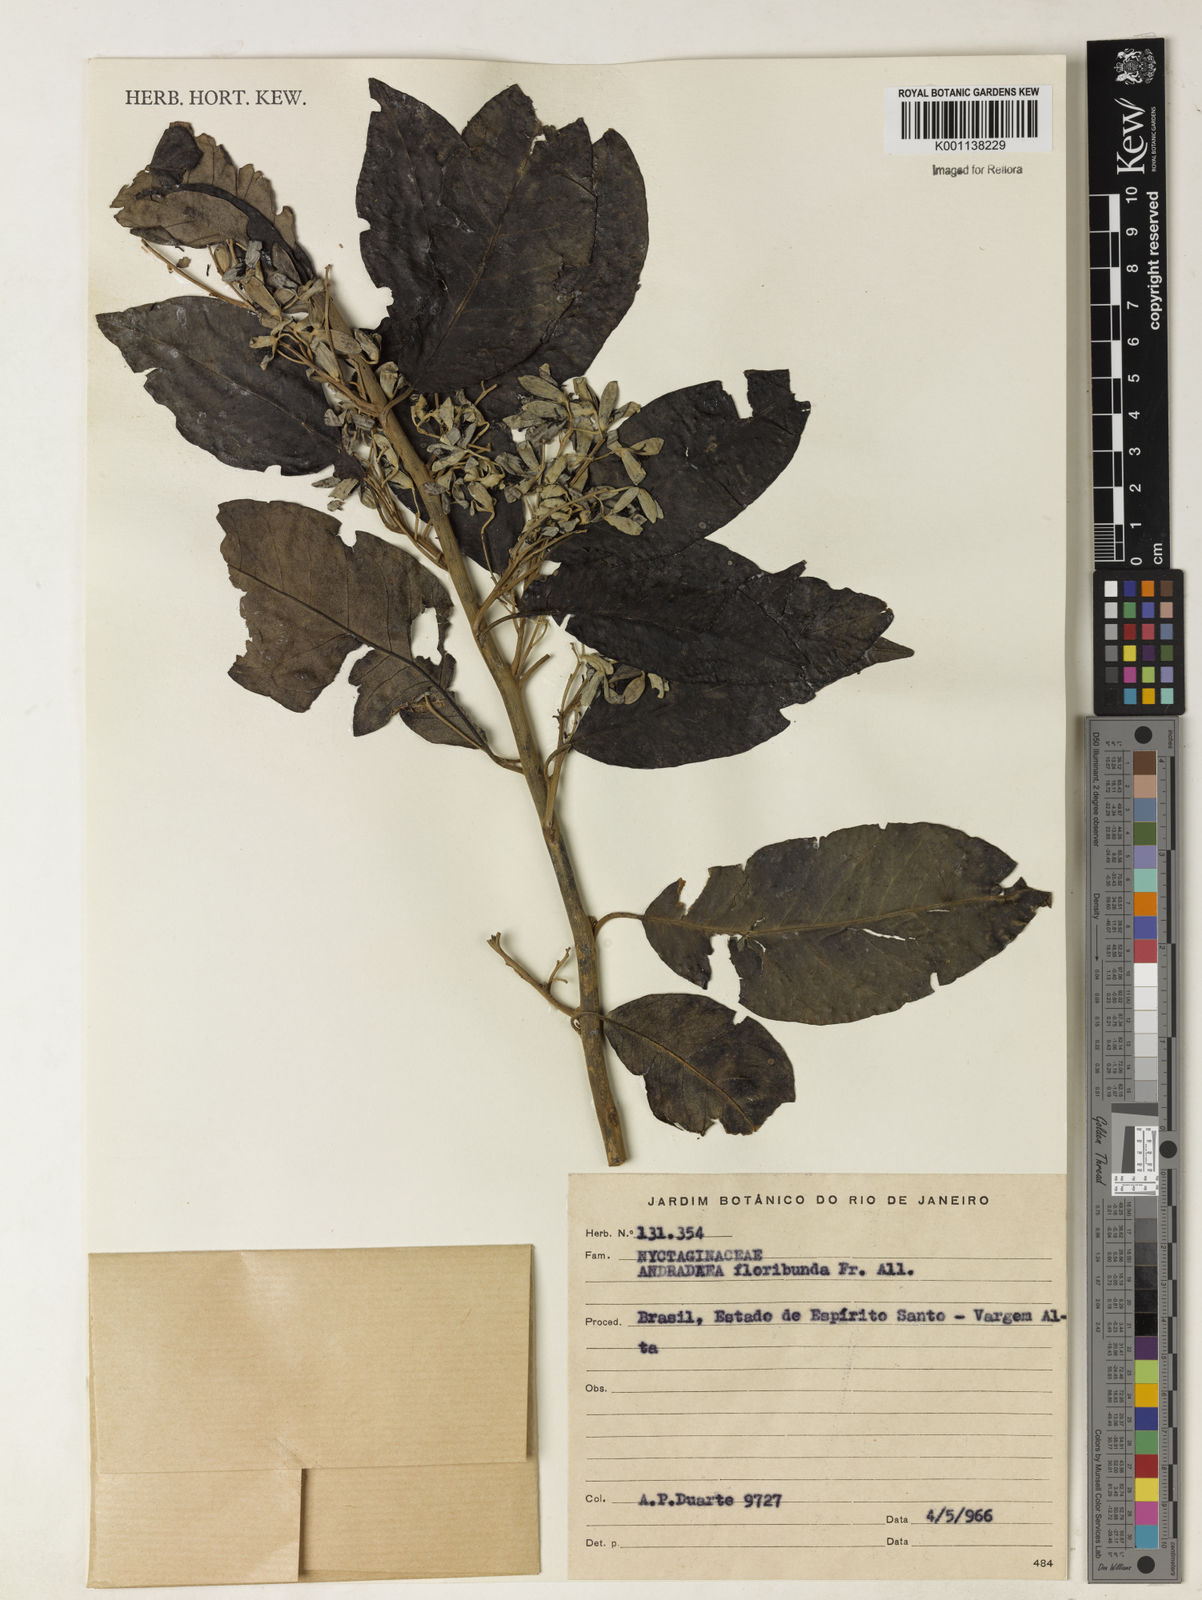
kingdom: Plantae
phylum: Tracheophyta
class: Magnoliopsida
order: Caryophyllales
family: Nyctaginaceae
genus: Andradea
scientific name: Andradea
